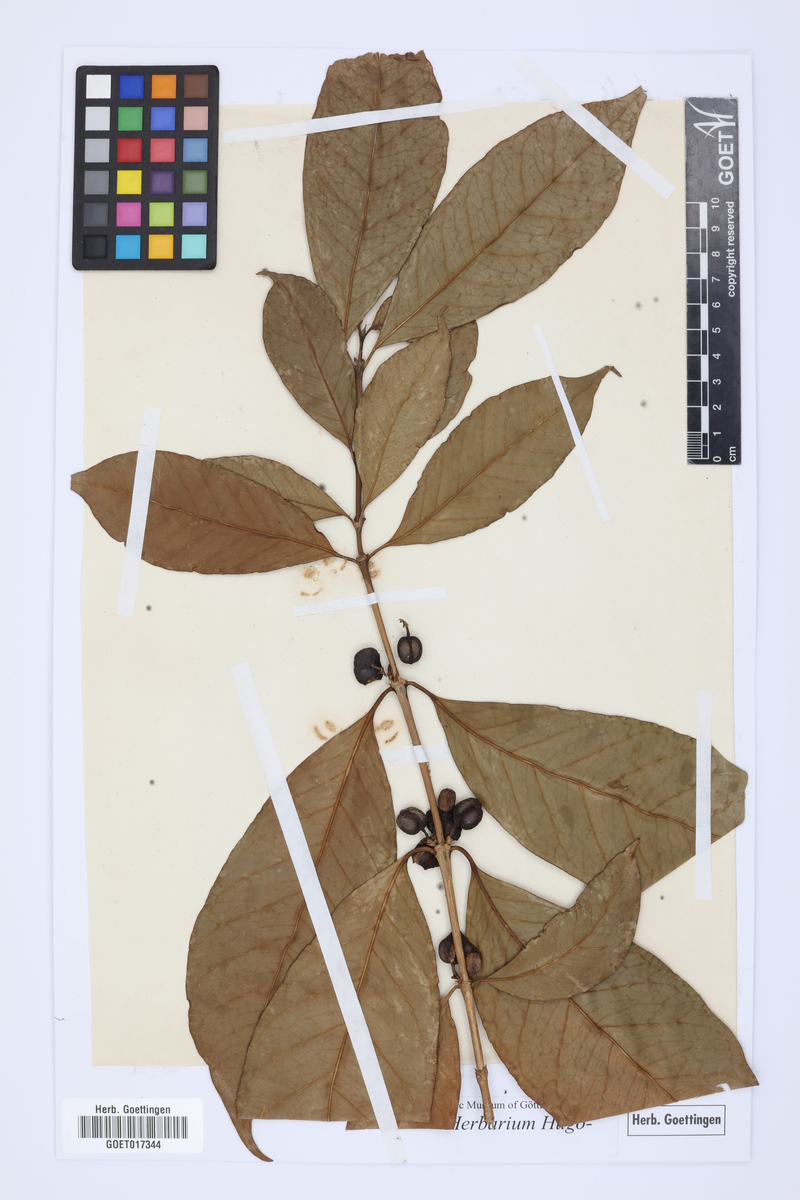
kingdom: Plantae
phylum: Tracheophyta
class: Magnoliopsida
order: Lamiales
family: Oleaceae
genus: Jasminum
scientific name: Jasminum grandiflorum
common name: Catalonian jasmine
